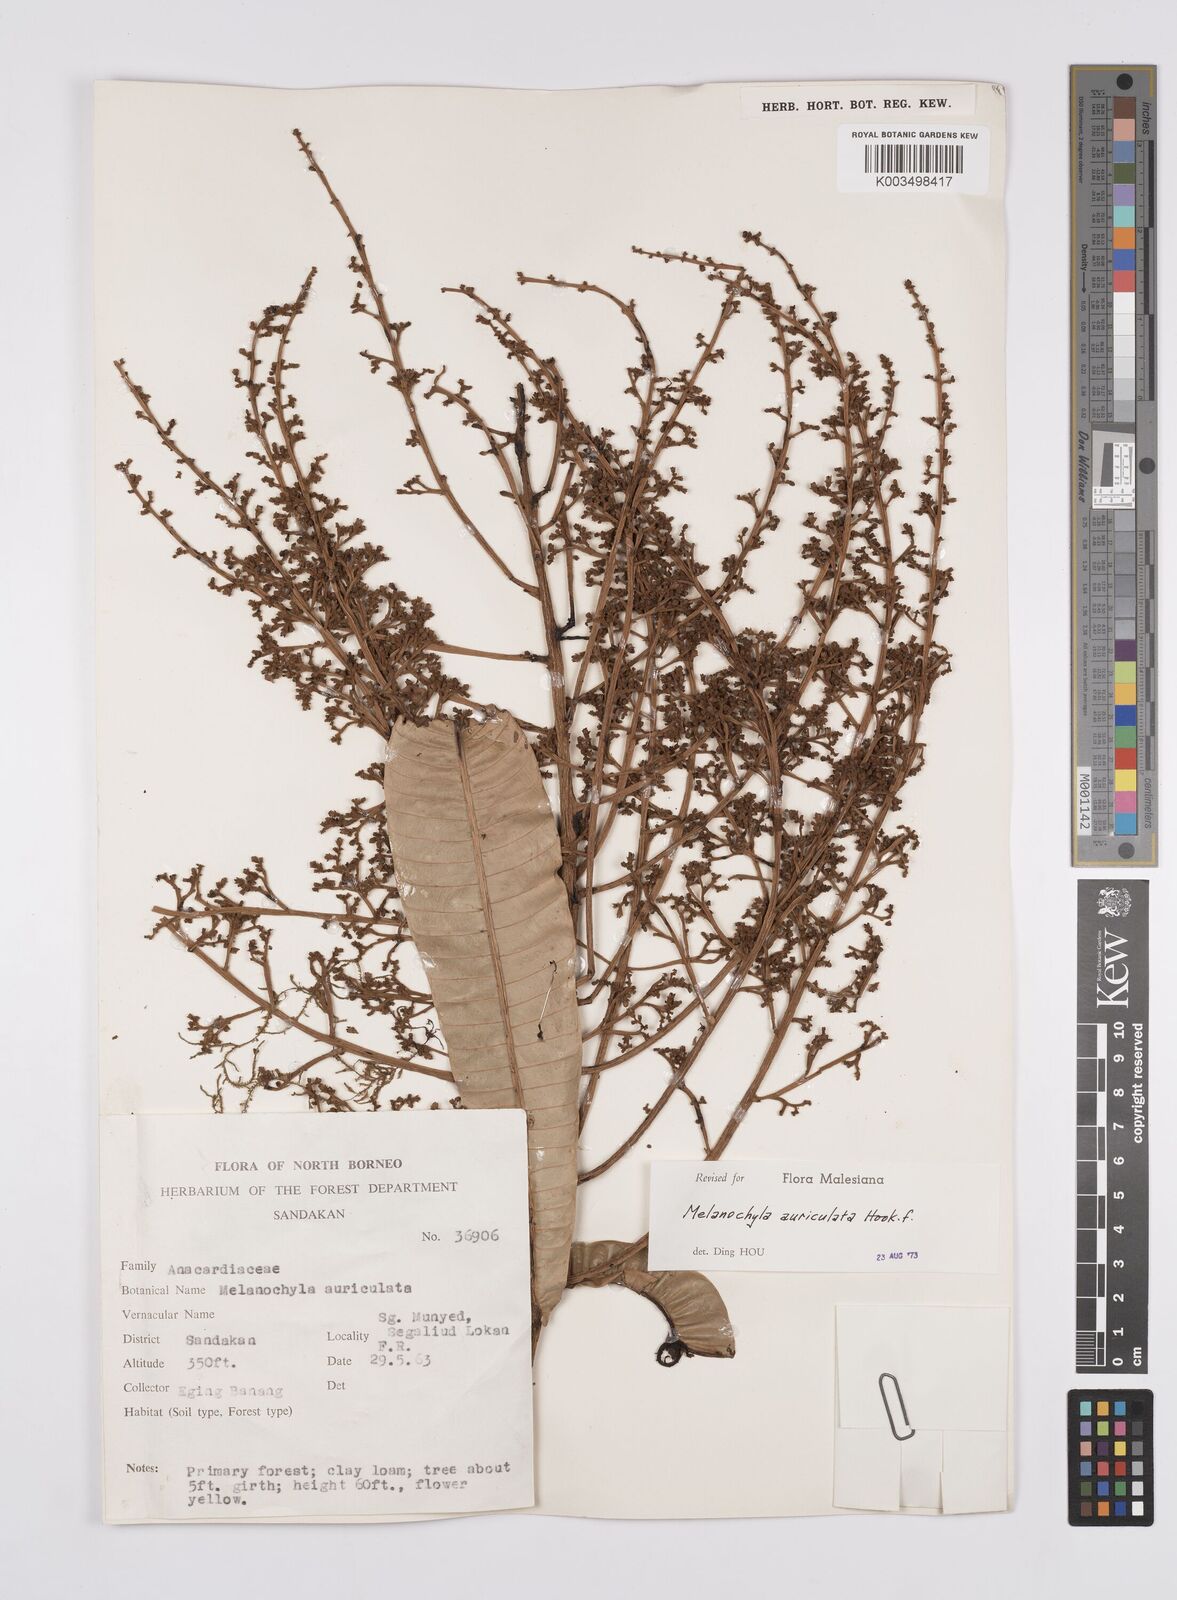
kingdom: Plantae
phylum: Tracheophyta
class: Magnoliopsida
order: Sapindales
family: Anacardiaceae
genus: Melanochyla
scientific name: Melanochyla auriculata
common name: Swamp rengas
